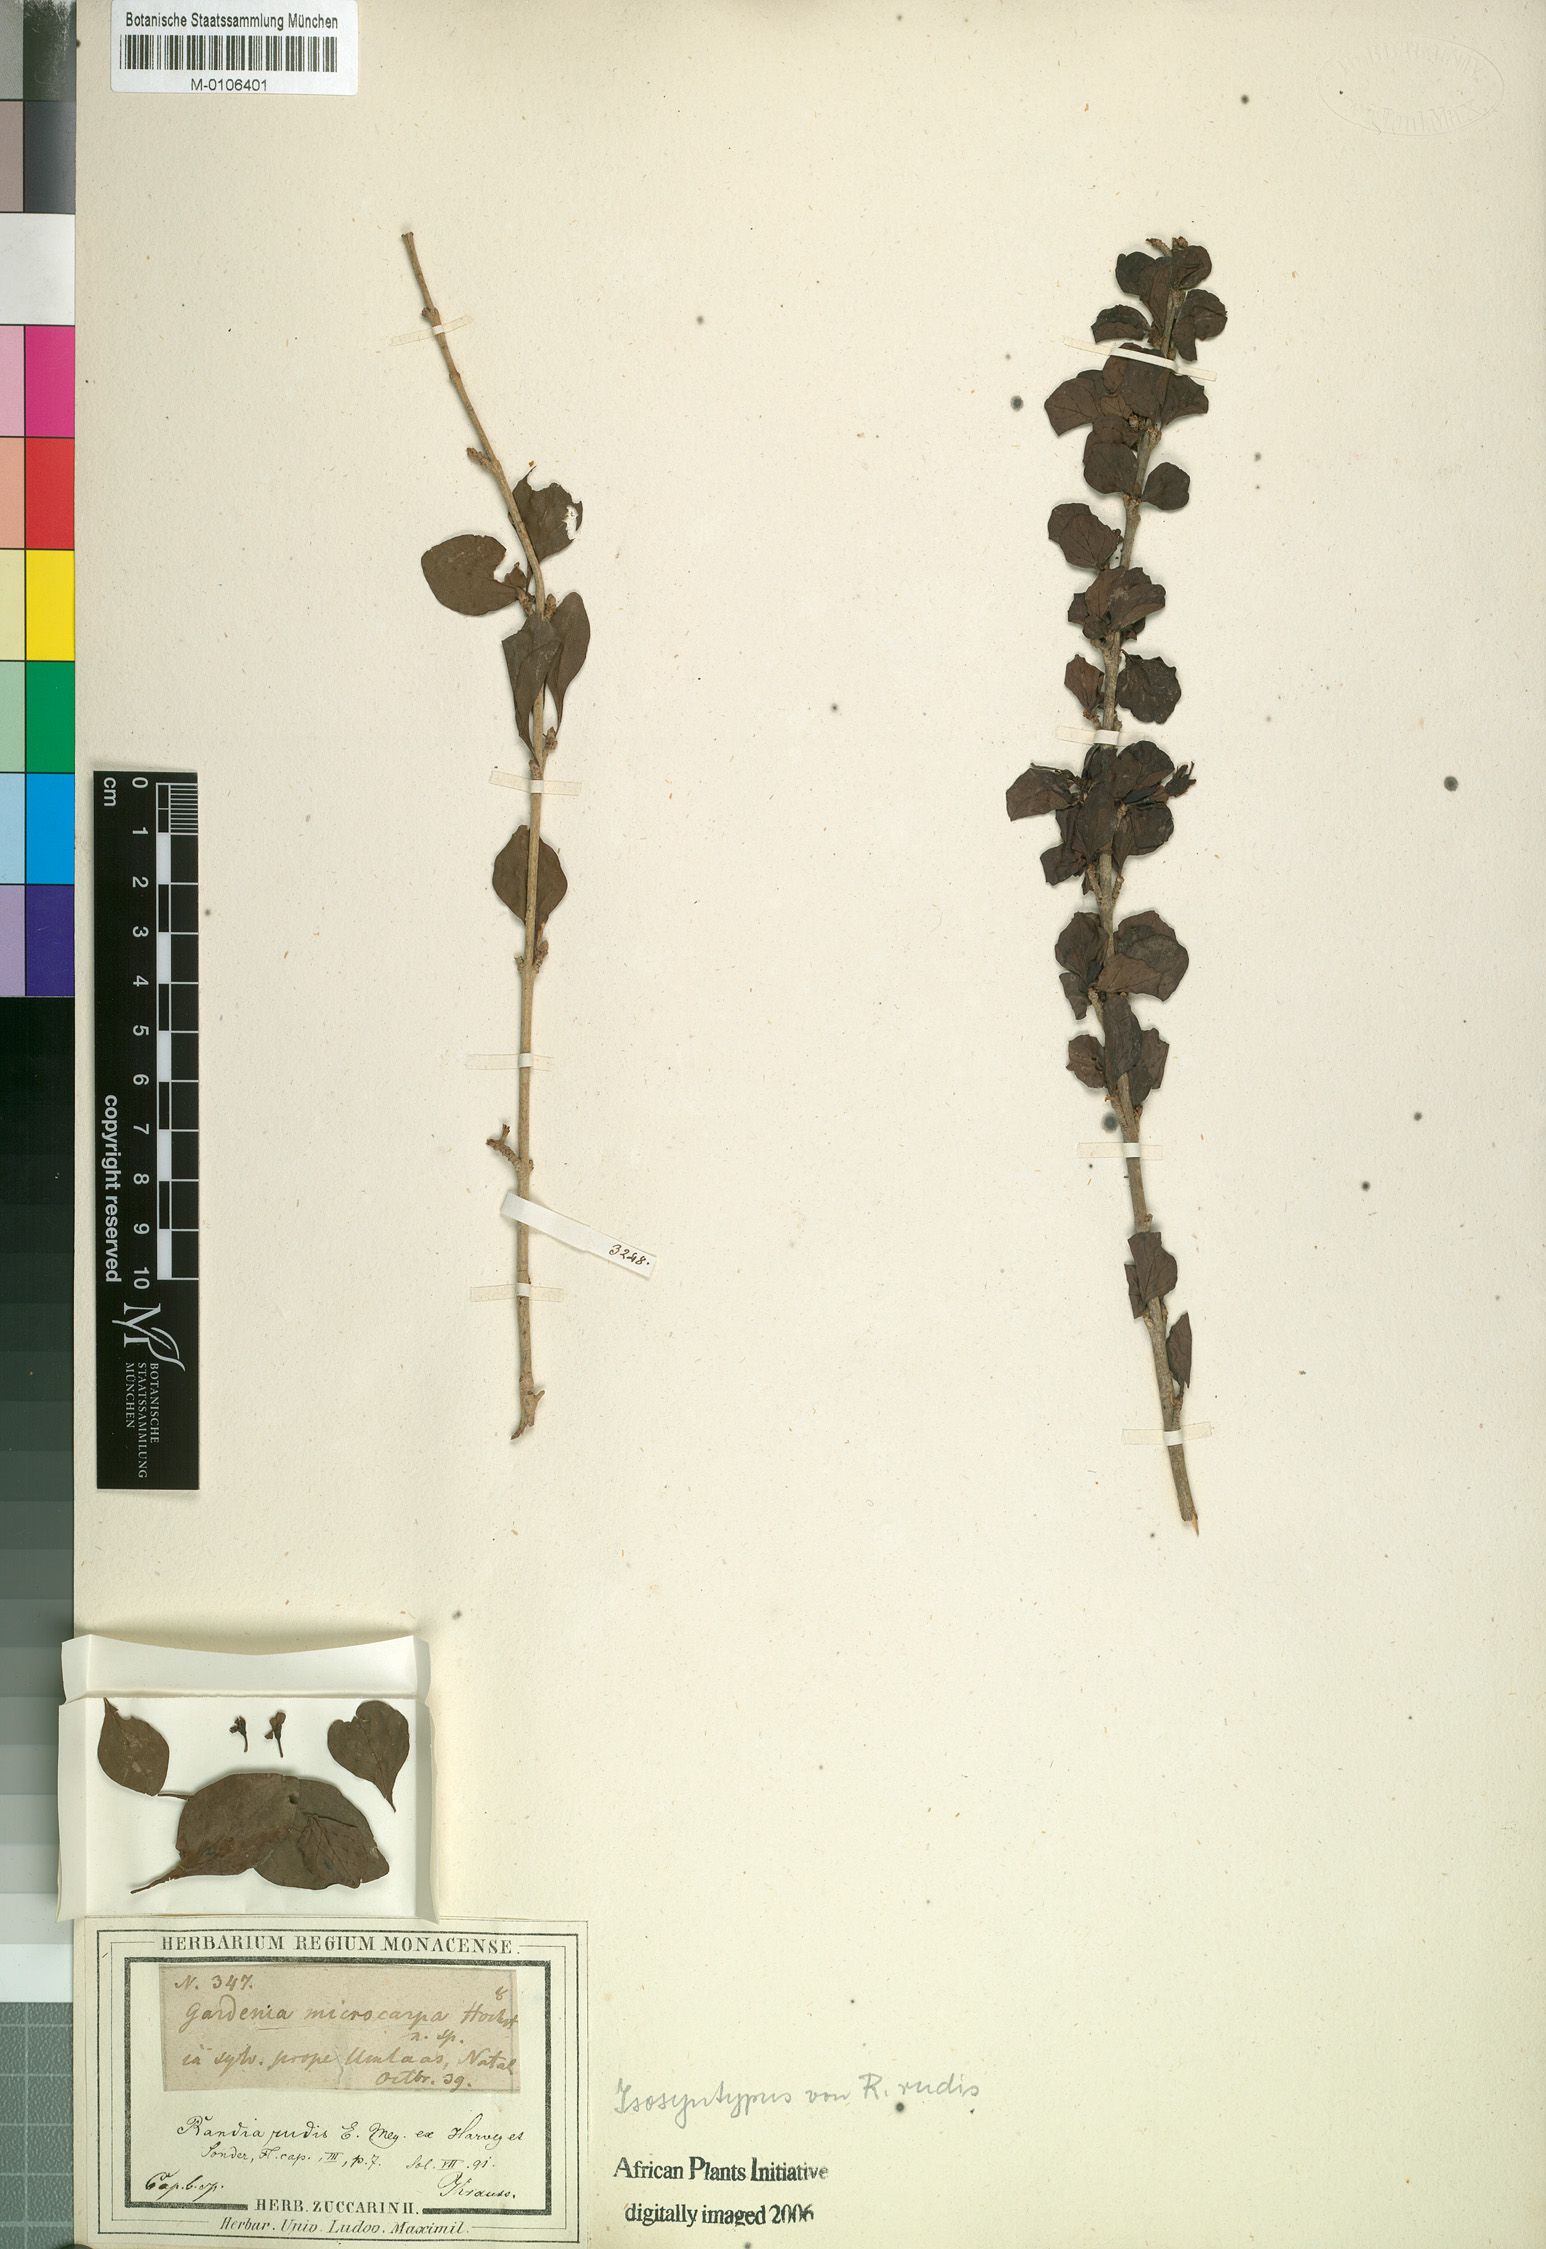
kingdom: Plantae
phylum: Tracheophyta
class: Magnoliopsida
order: Gentianales
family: Rubiaceae
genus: Coddia
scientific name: Coddia rudis
